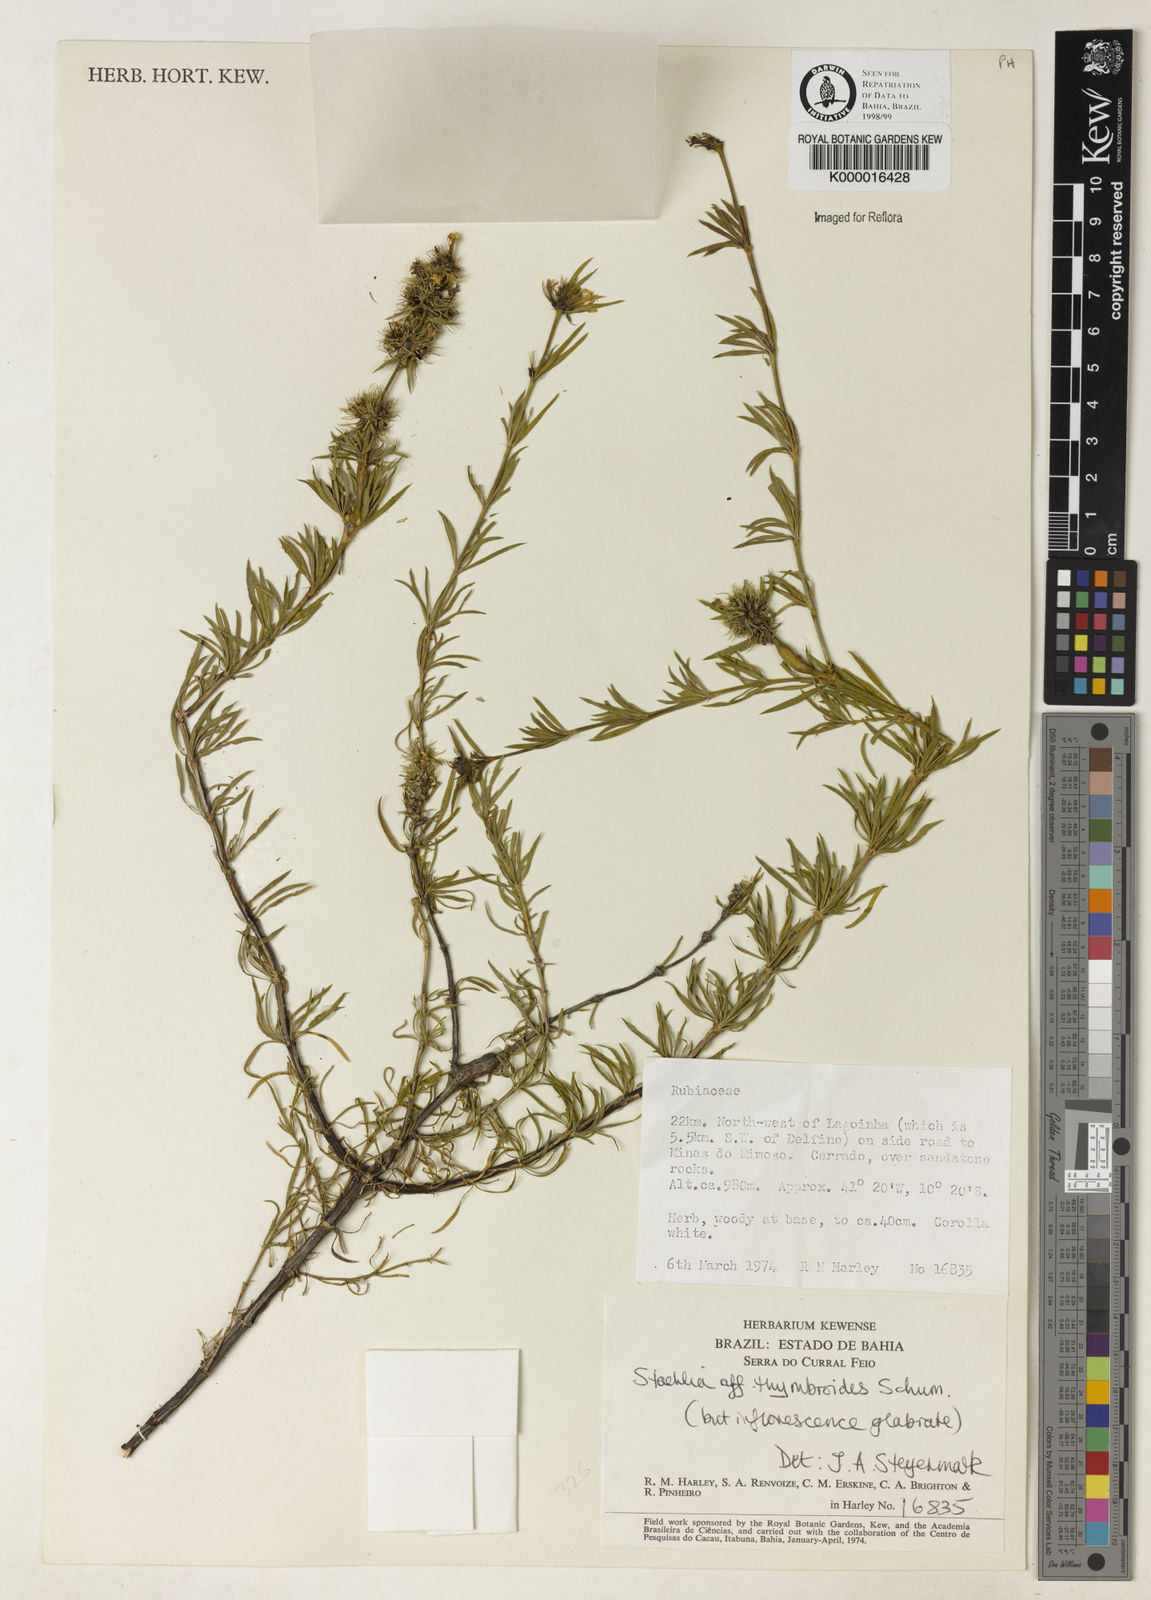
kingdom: Plantae
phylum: Tracheophyta
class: Magnoliopsida
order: Gentianales
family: Rubiaceae
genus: Staelia
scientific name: Staelia harleyi
